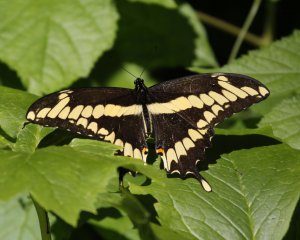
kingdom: Animalia
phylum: Arthropoda
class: Insecta
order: Lepidoptera
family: Papilionidae
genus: Papilio
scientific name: Papilio cresphontes
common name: Eastern Giant Swallowtail
